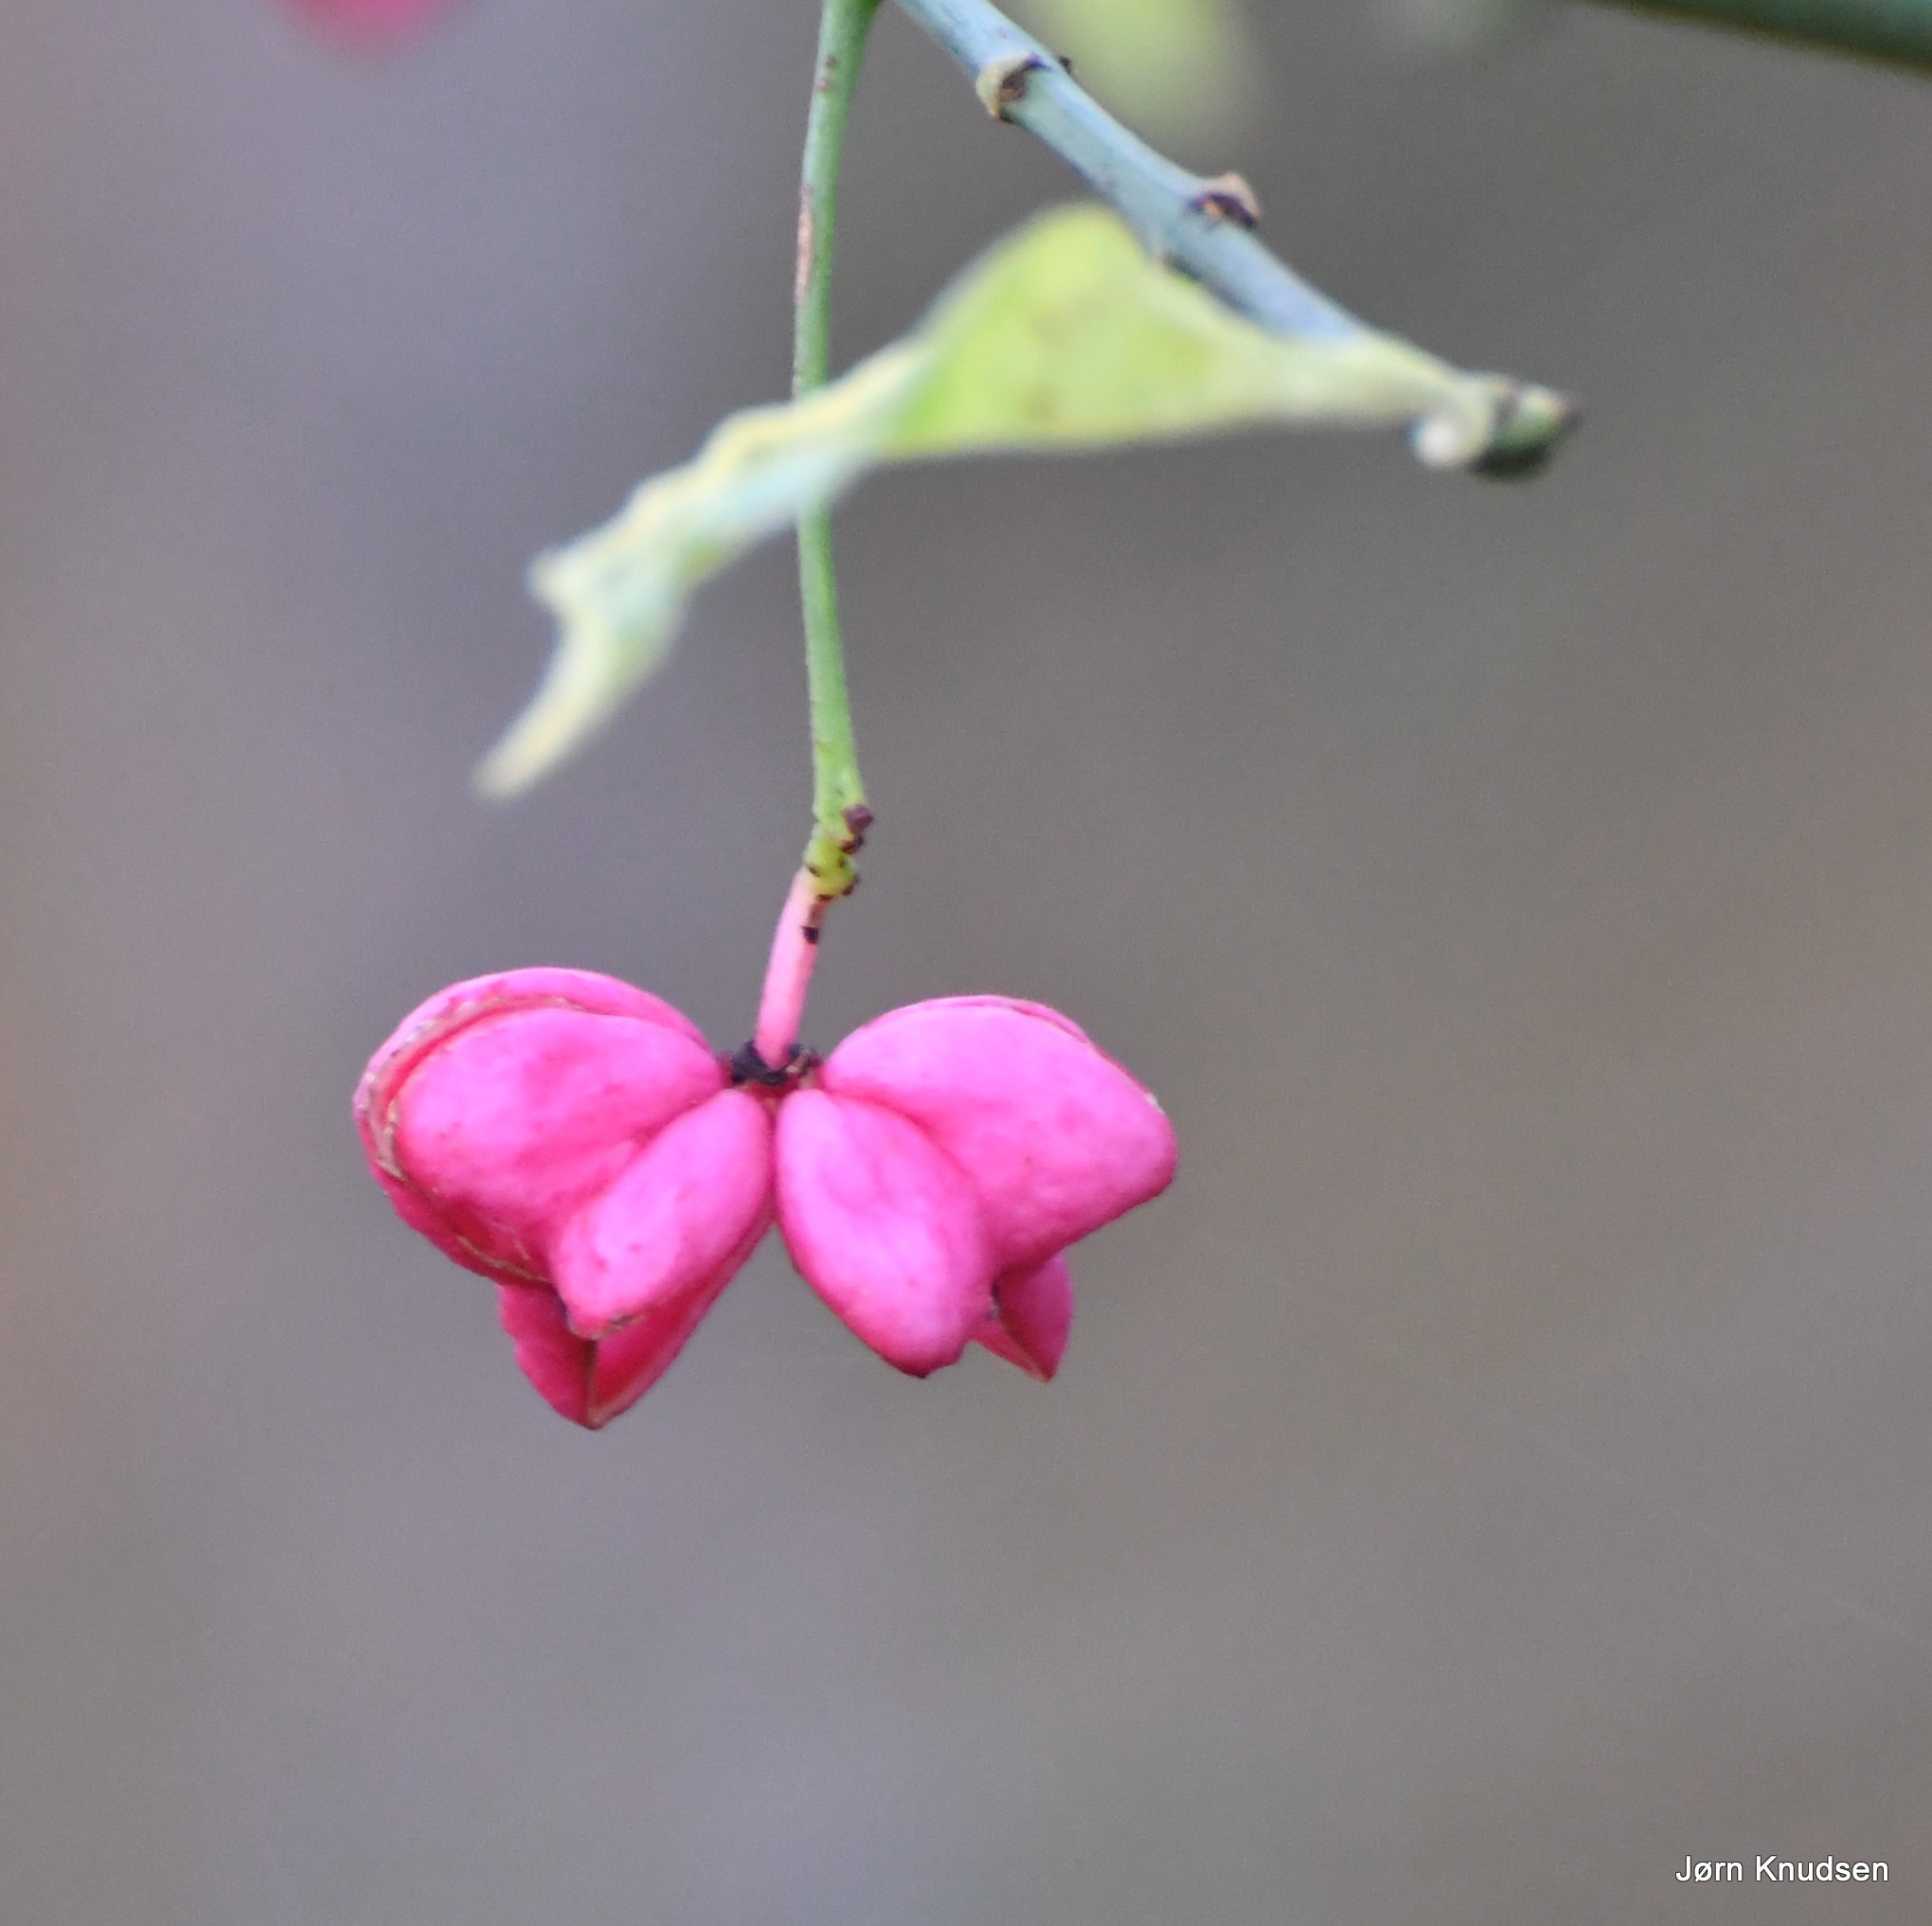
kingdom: Plantae
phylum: Tracheophyta
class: Magnoliopsida
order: Celastrales
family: Celastraceae
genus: Euonymus
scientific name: Euonymus europaeus
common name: Benved
